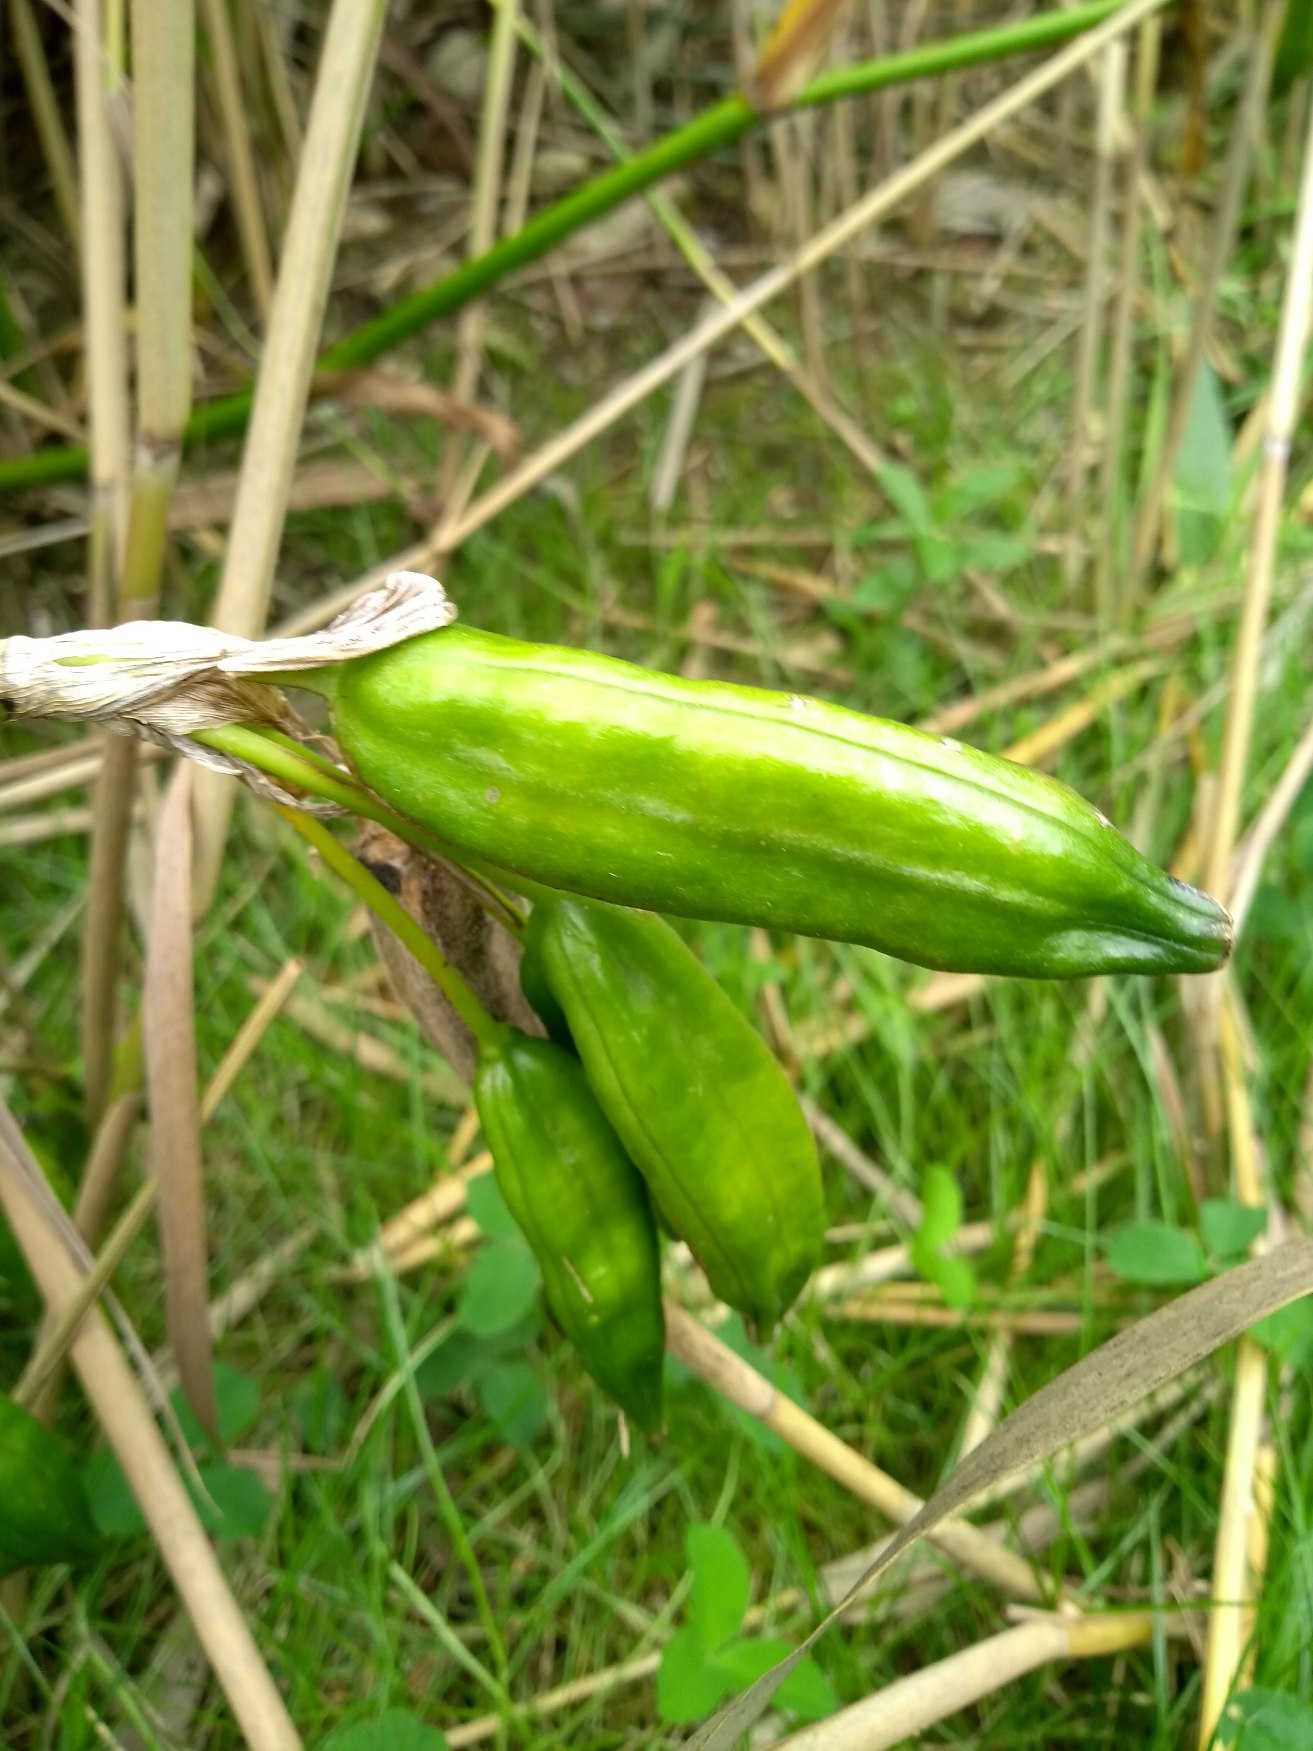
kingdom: Plantae
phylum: Tracheophyta
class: Liliopsida
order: Asparagales
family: Iridaceae
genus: Iris
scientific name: Iris pseudacorus
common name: Gul iris
